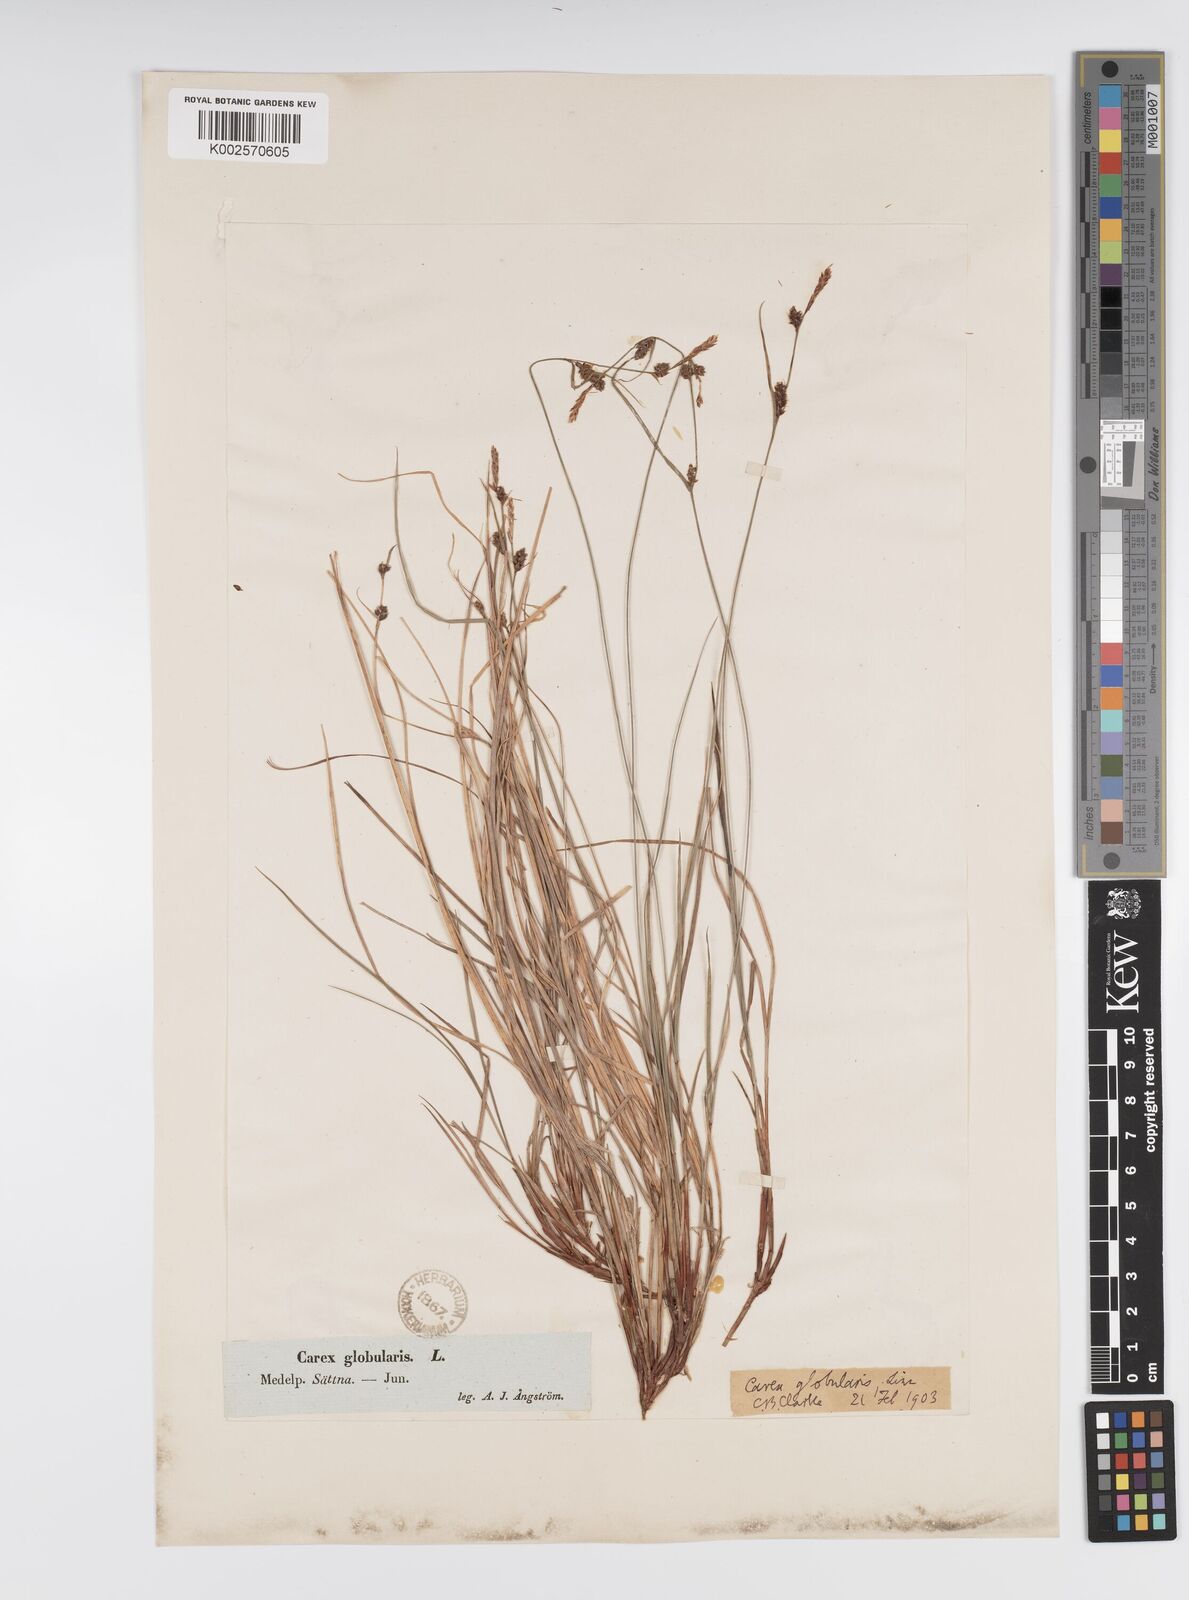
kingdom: Plantae
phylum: Tracheophyta
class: Liliopsida
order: Poales
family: Cyperaceae
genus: Carex
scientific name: Carex globularis
